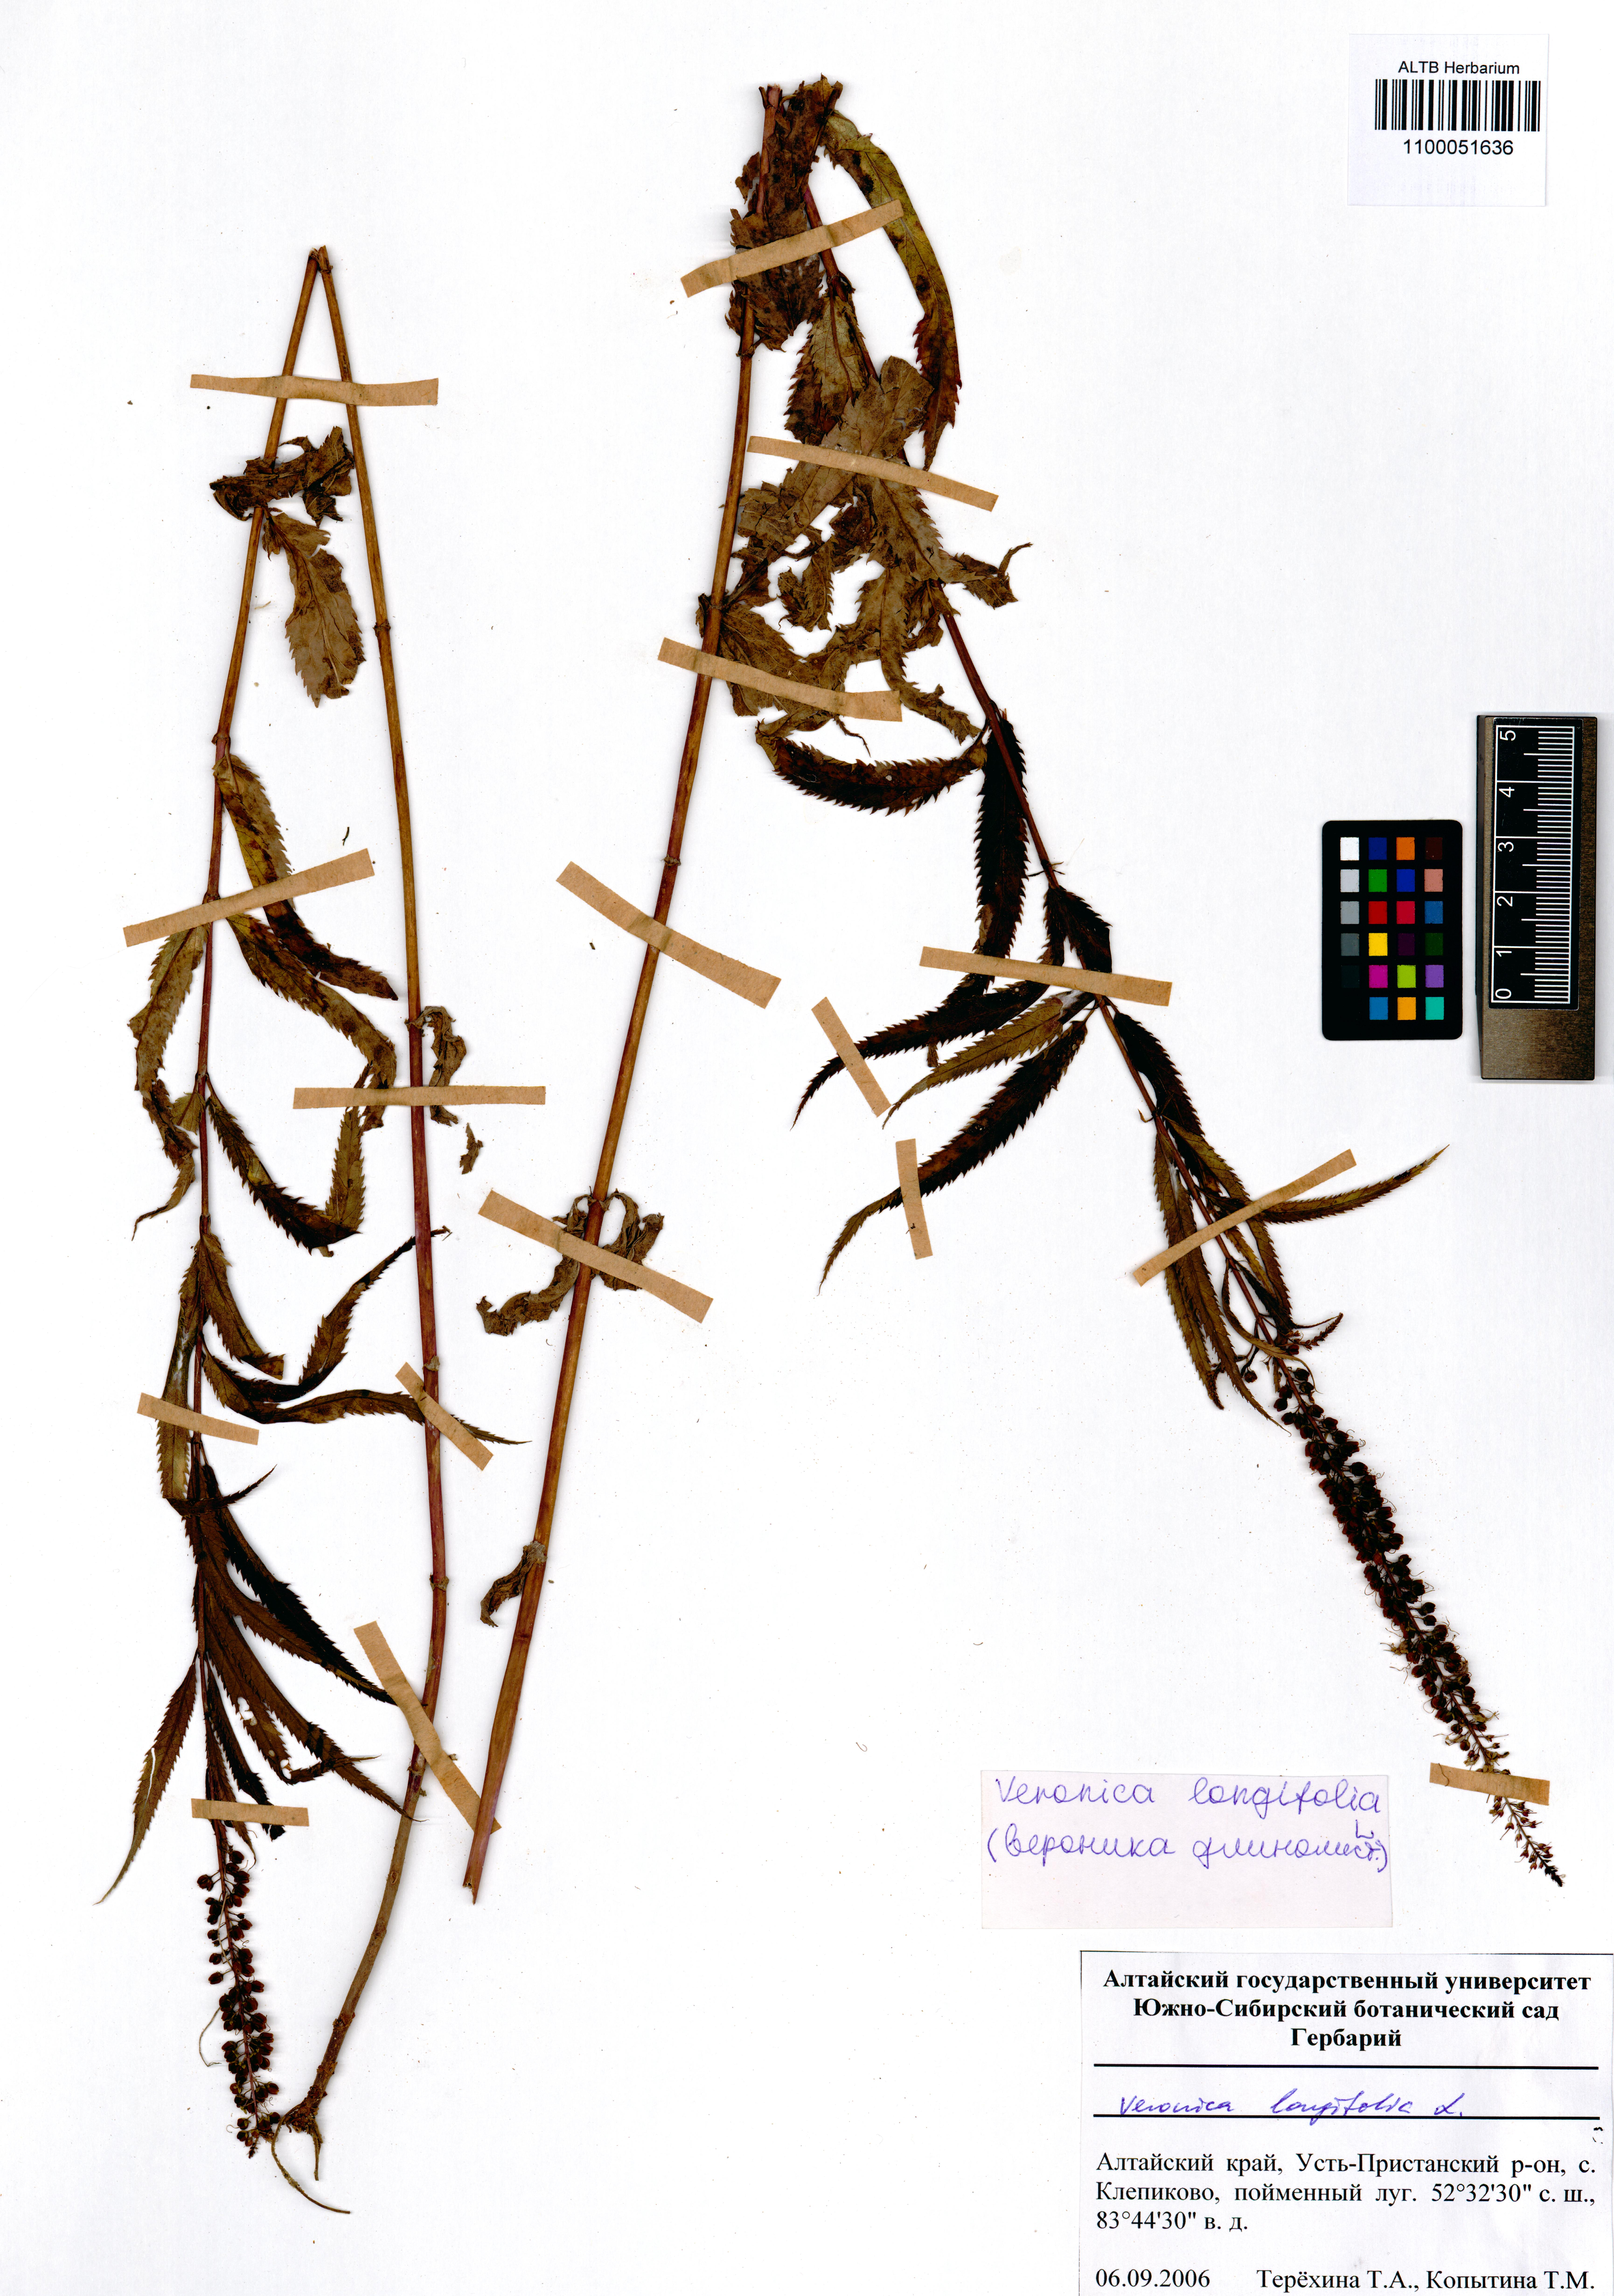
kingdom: Plantae
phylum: Tracheophyta
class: Magnoliopsida
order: Lamiales
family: Plantaginaceae
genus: Veronica
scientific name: Veronica longifolia
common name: Garden speedwell
